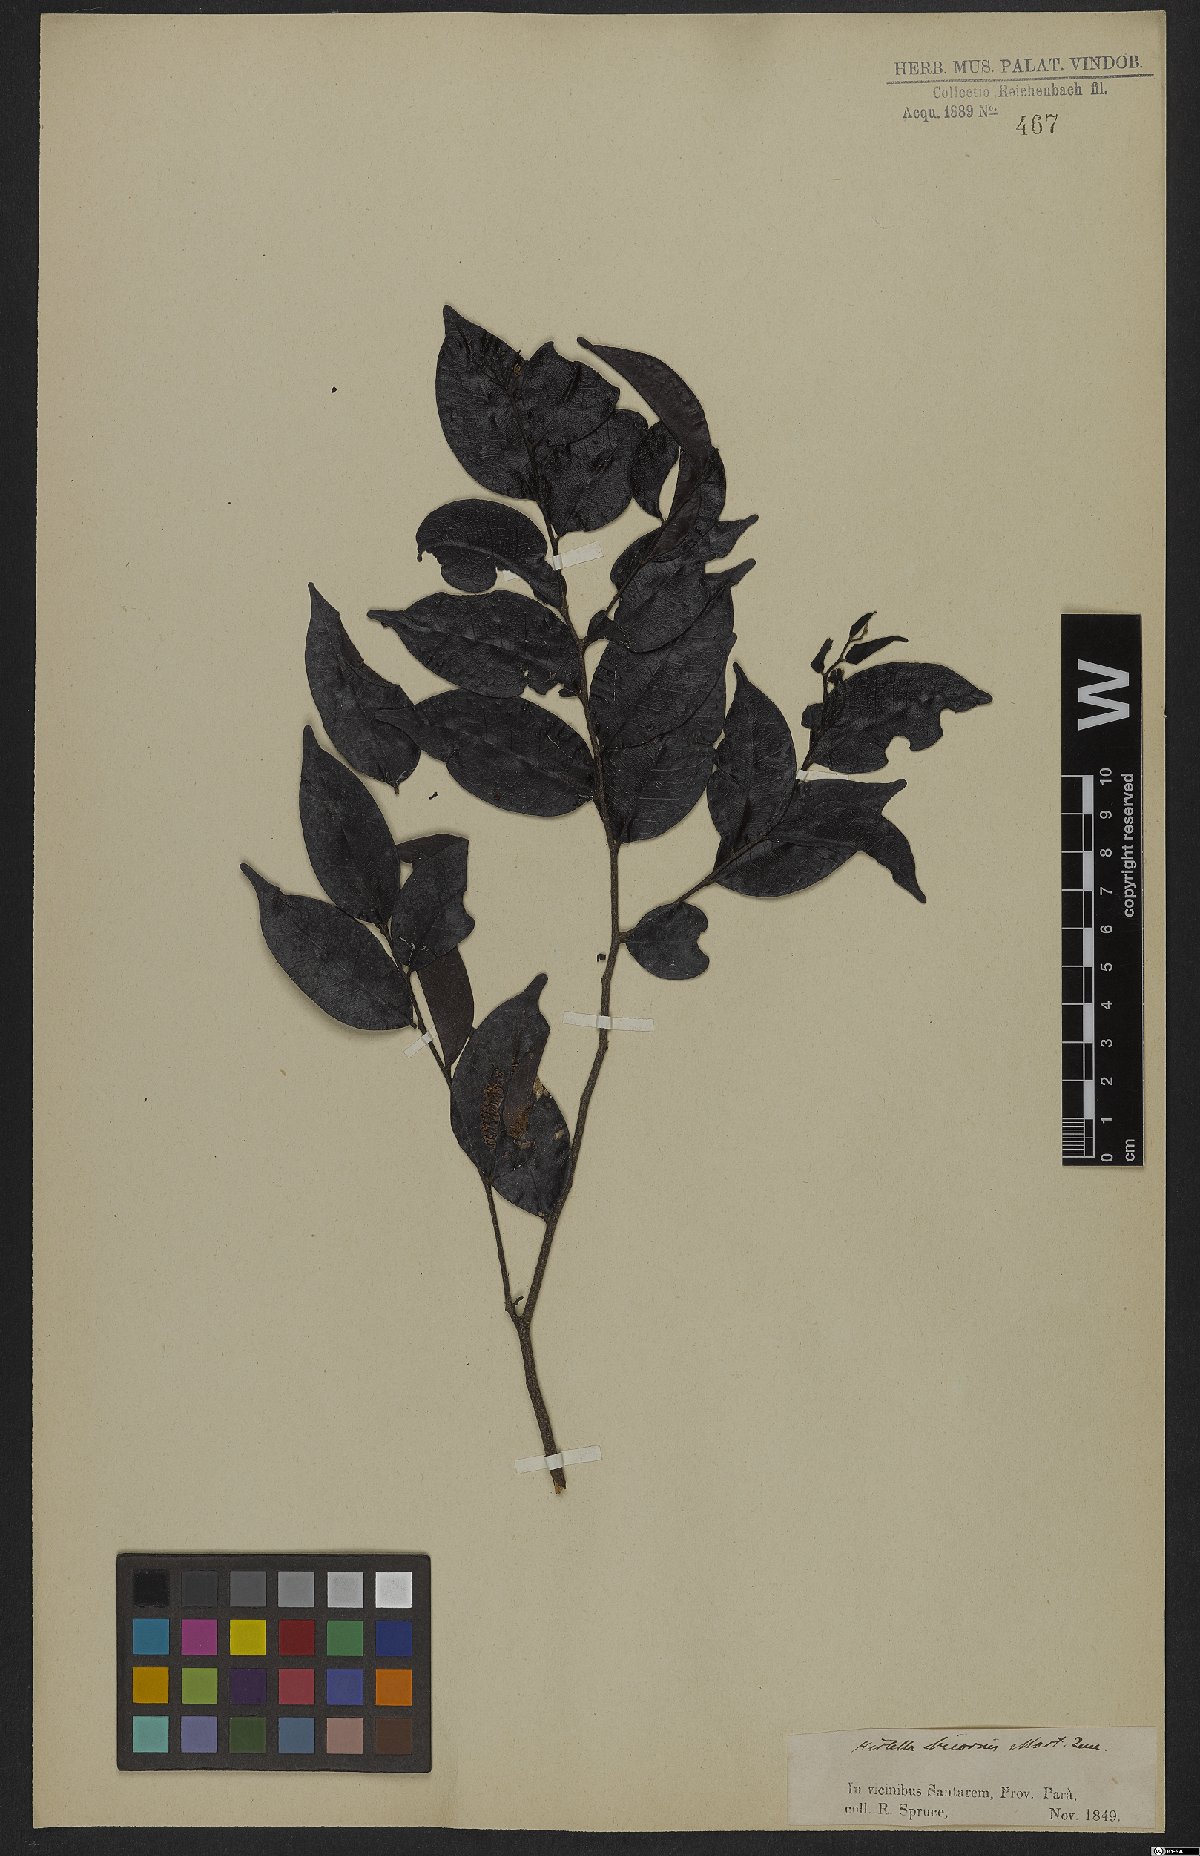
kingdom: Plantae
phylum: Tracheophyta
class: Magnoliopsida
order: Malpighiales
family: Chrysobalanaceae
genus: Hirtella
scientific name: Hirtella bicornis
